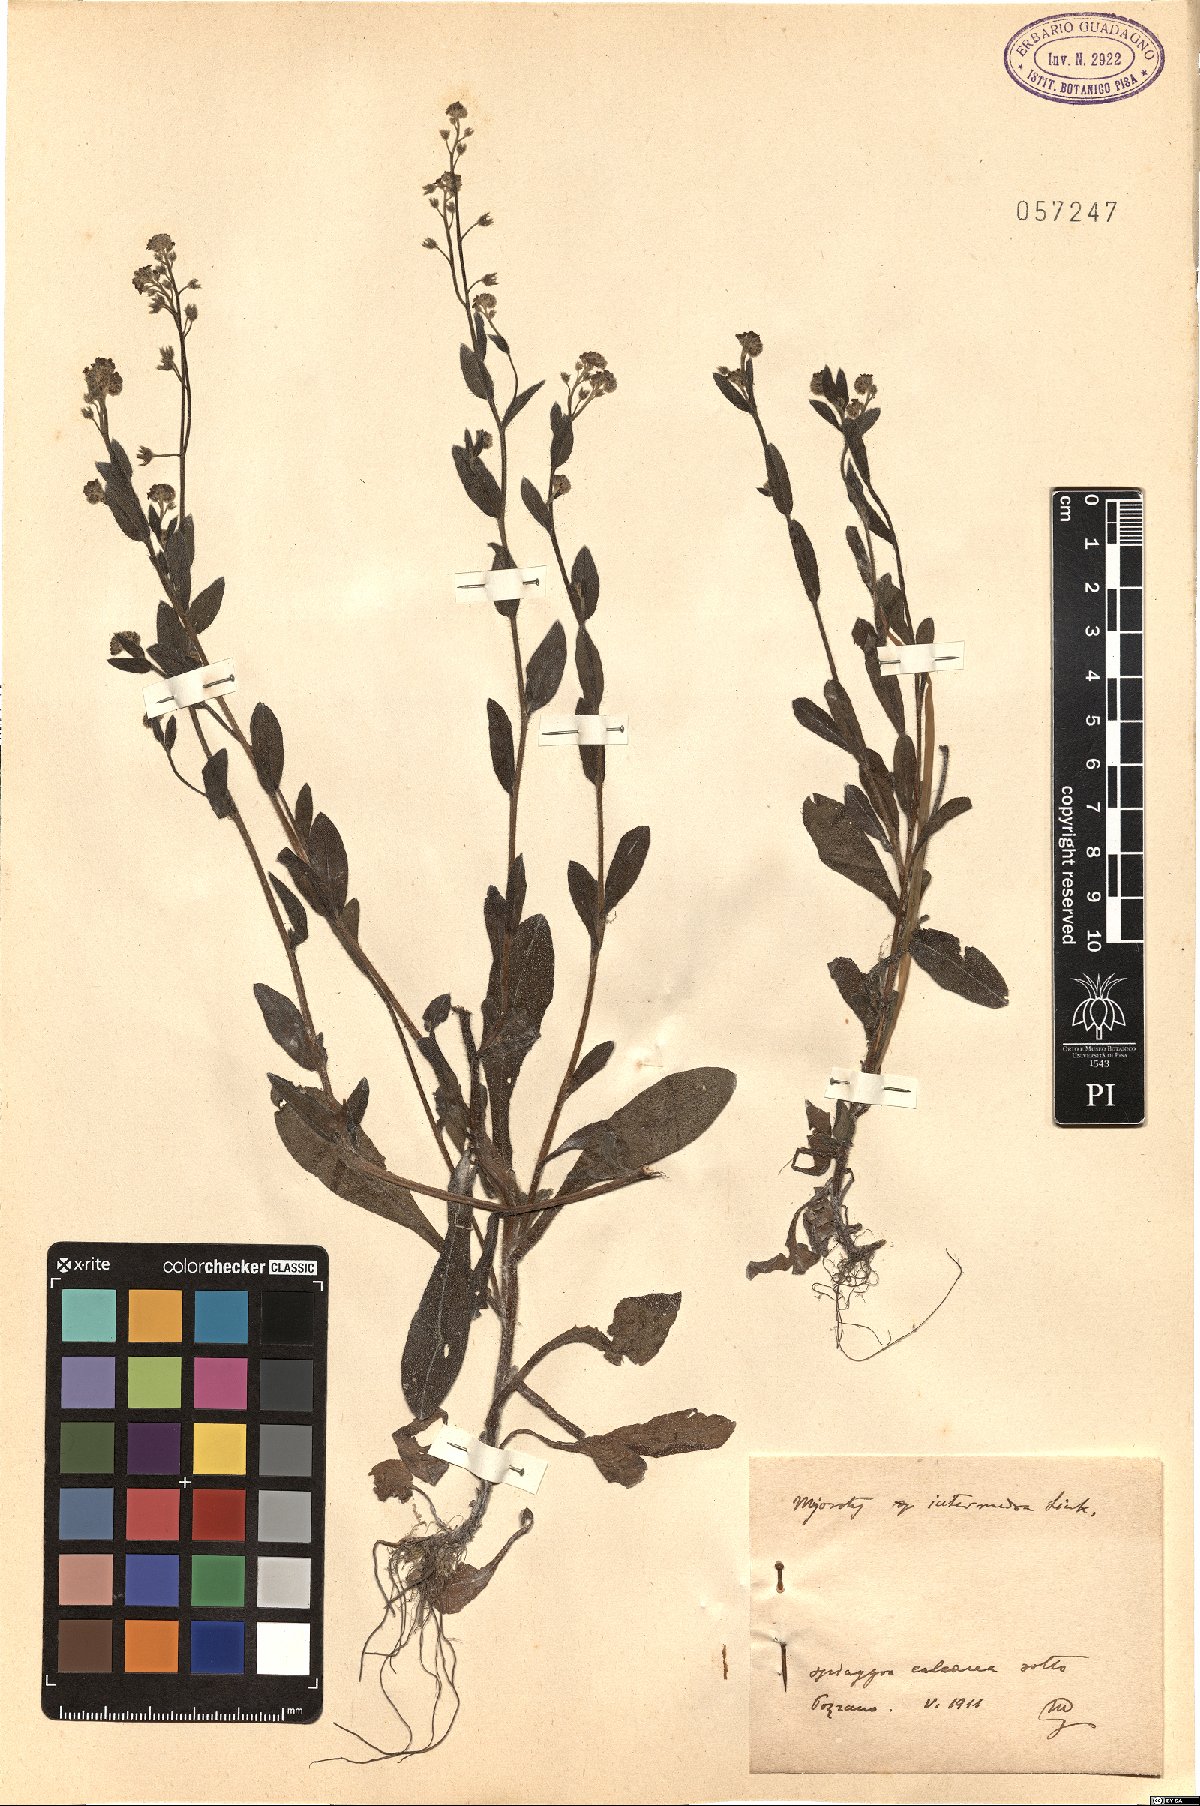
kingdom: Plantae
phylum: Tracheophyta
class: Magnoliopsida
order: Boraginales
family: Boraginaceae
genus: Myosotis
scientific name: Myosotis arvensis
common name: Field forget-me-not
